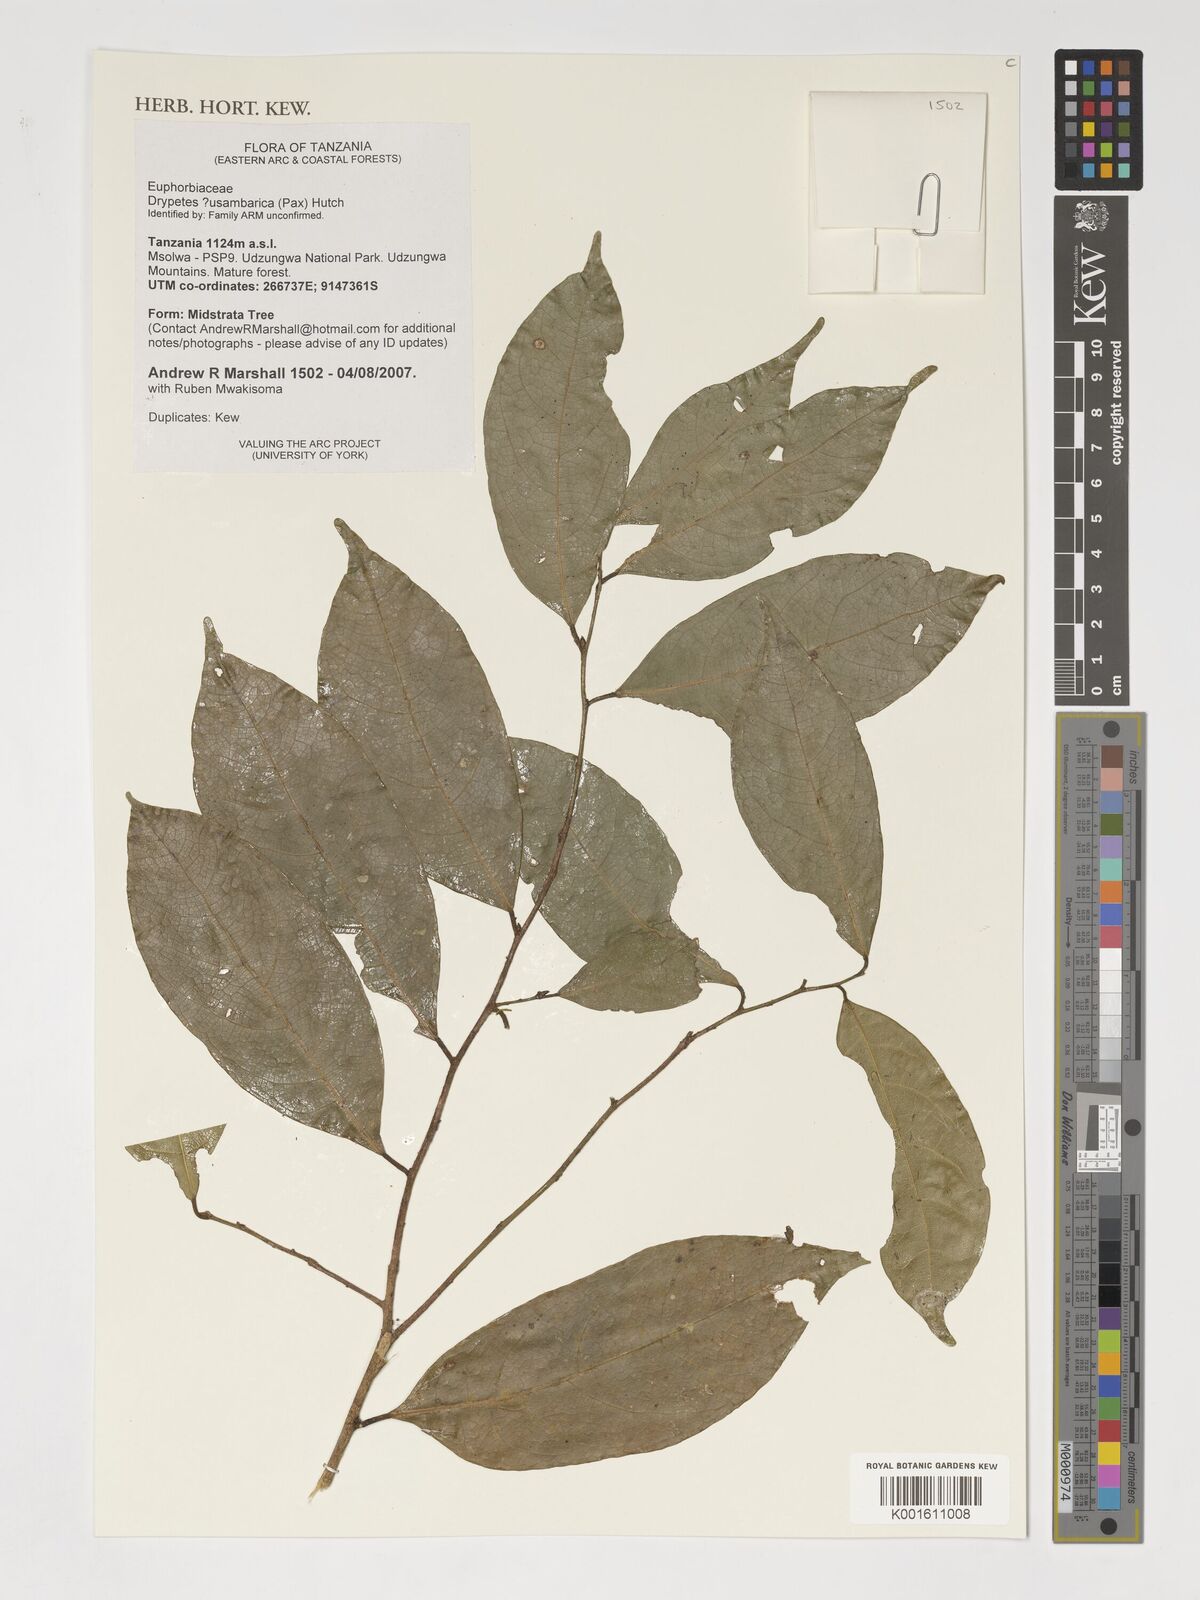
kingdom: Plantae
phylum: Tracheophyta
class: Magnoliopsida
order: Malpighiales
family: Putranjivaceae
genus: Drypetes
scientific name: Drypetes usambarica
